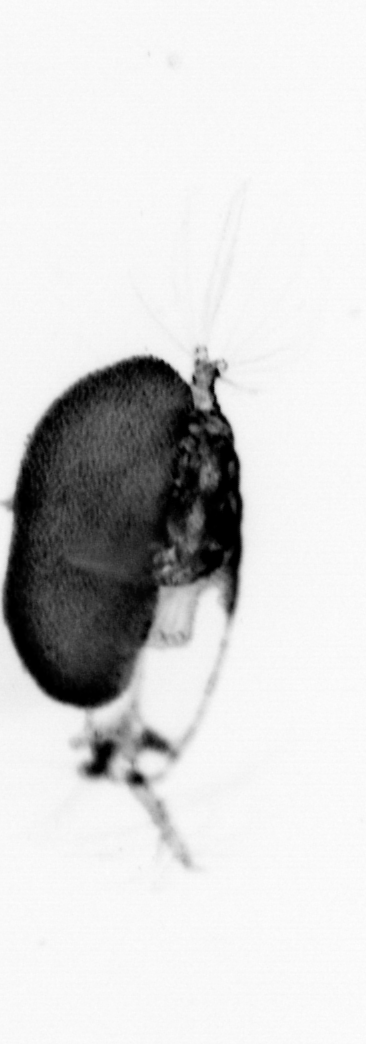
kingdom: Animalia
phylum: Arthropoda
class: Copepoda
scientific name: Copepoda
